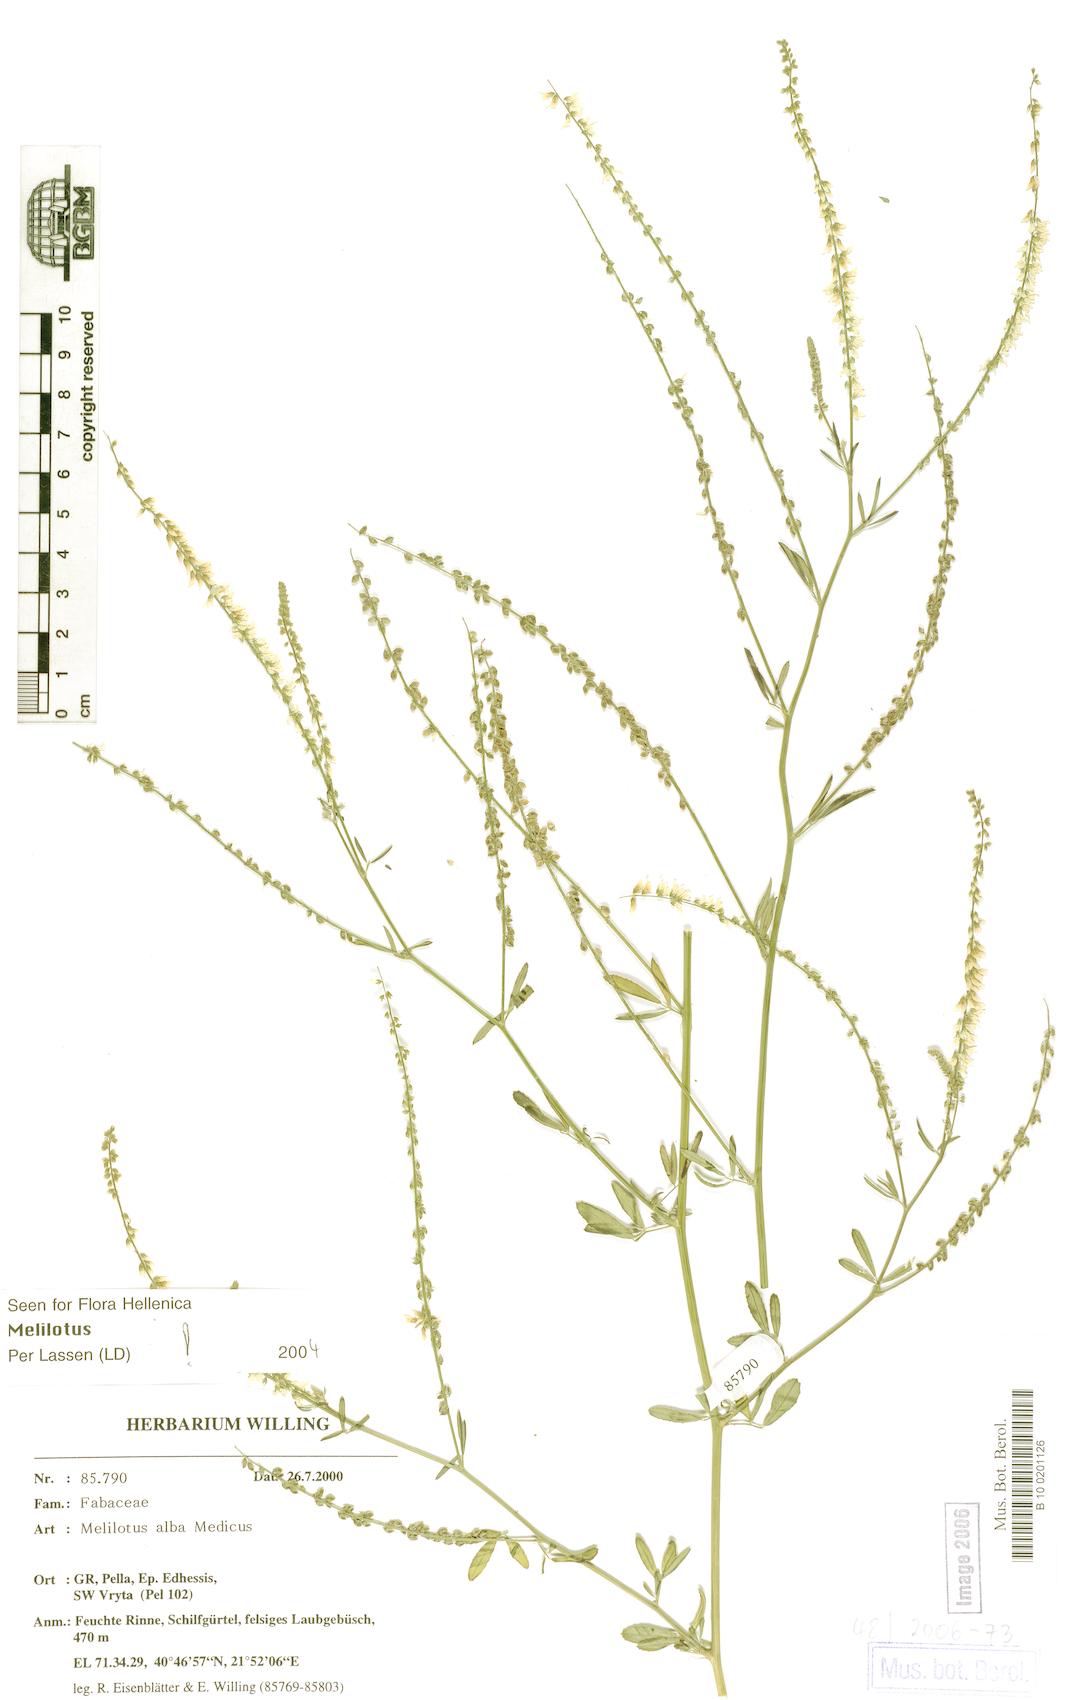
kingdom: Plantae
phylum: Tracheophyta
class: Magnoliopsida
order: Fabales
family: Fabaceae
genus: Melilotus
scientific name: Melilotus albus
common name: White melilot
